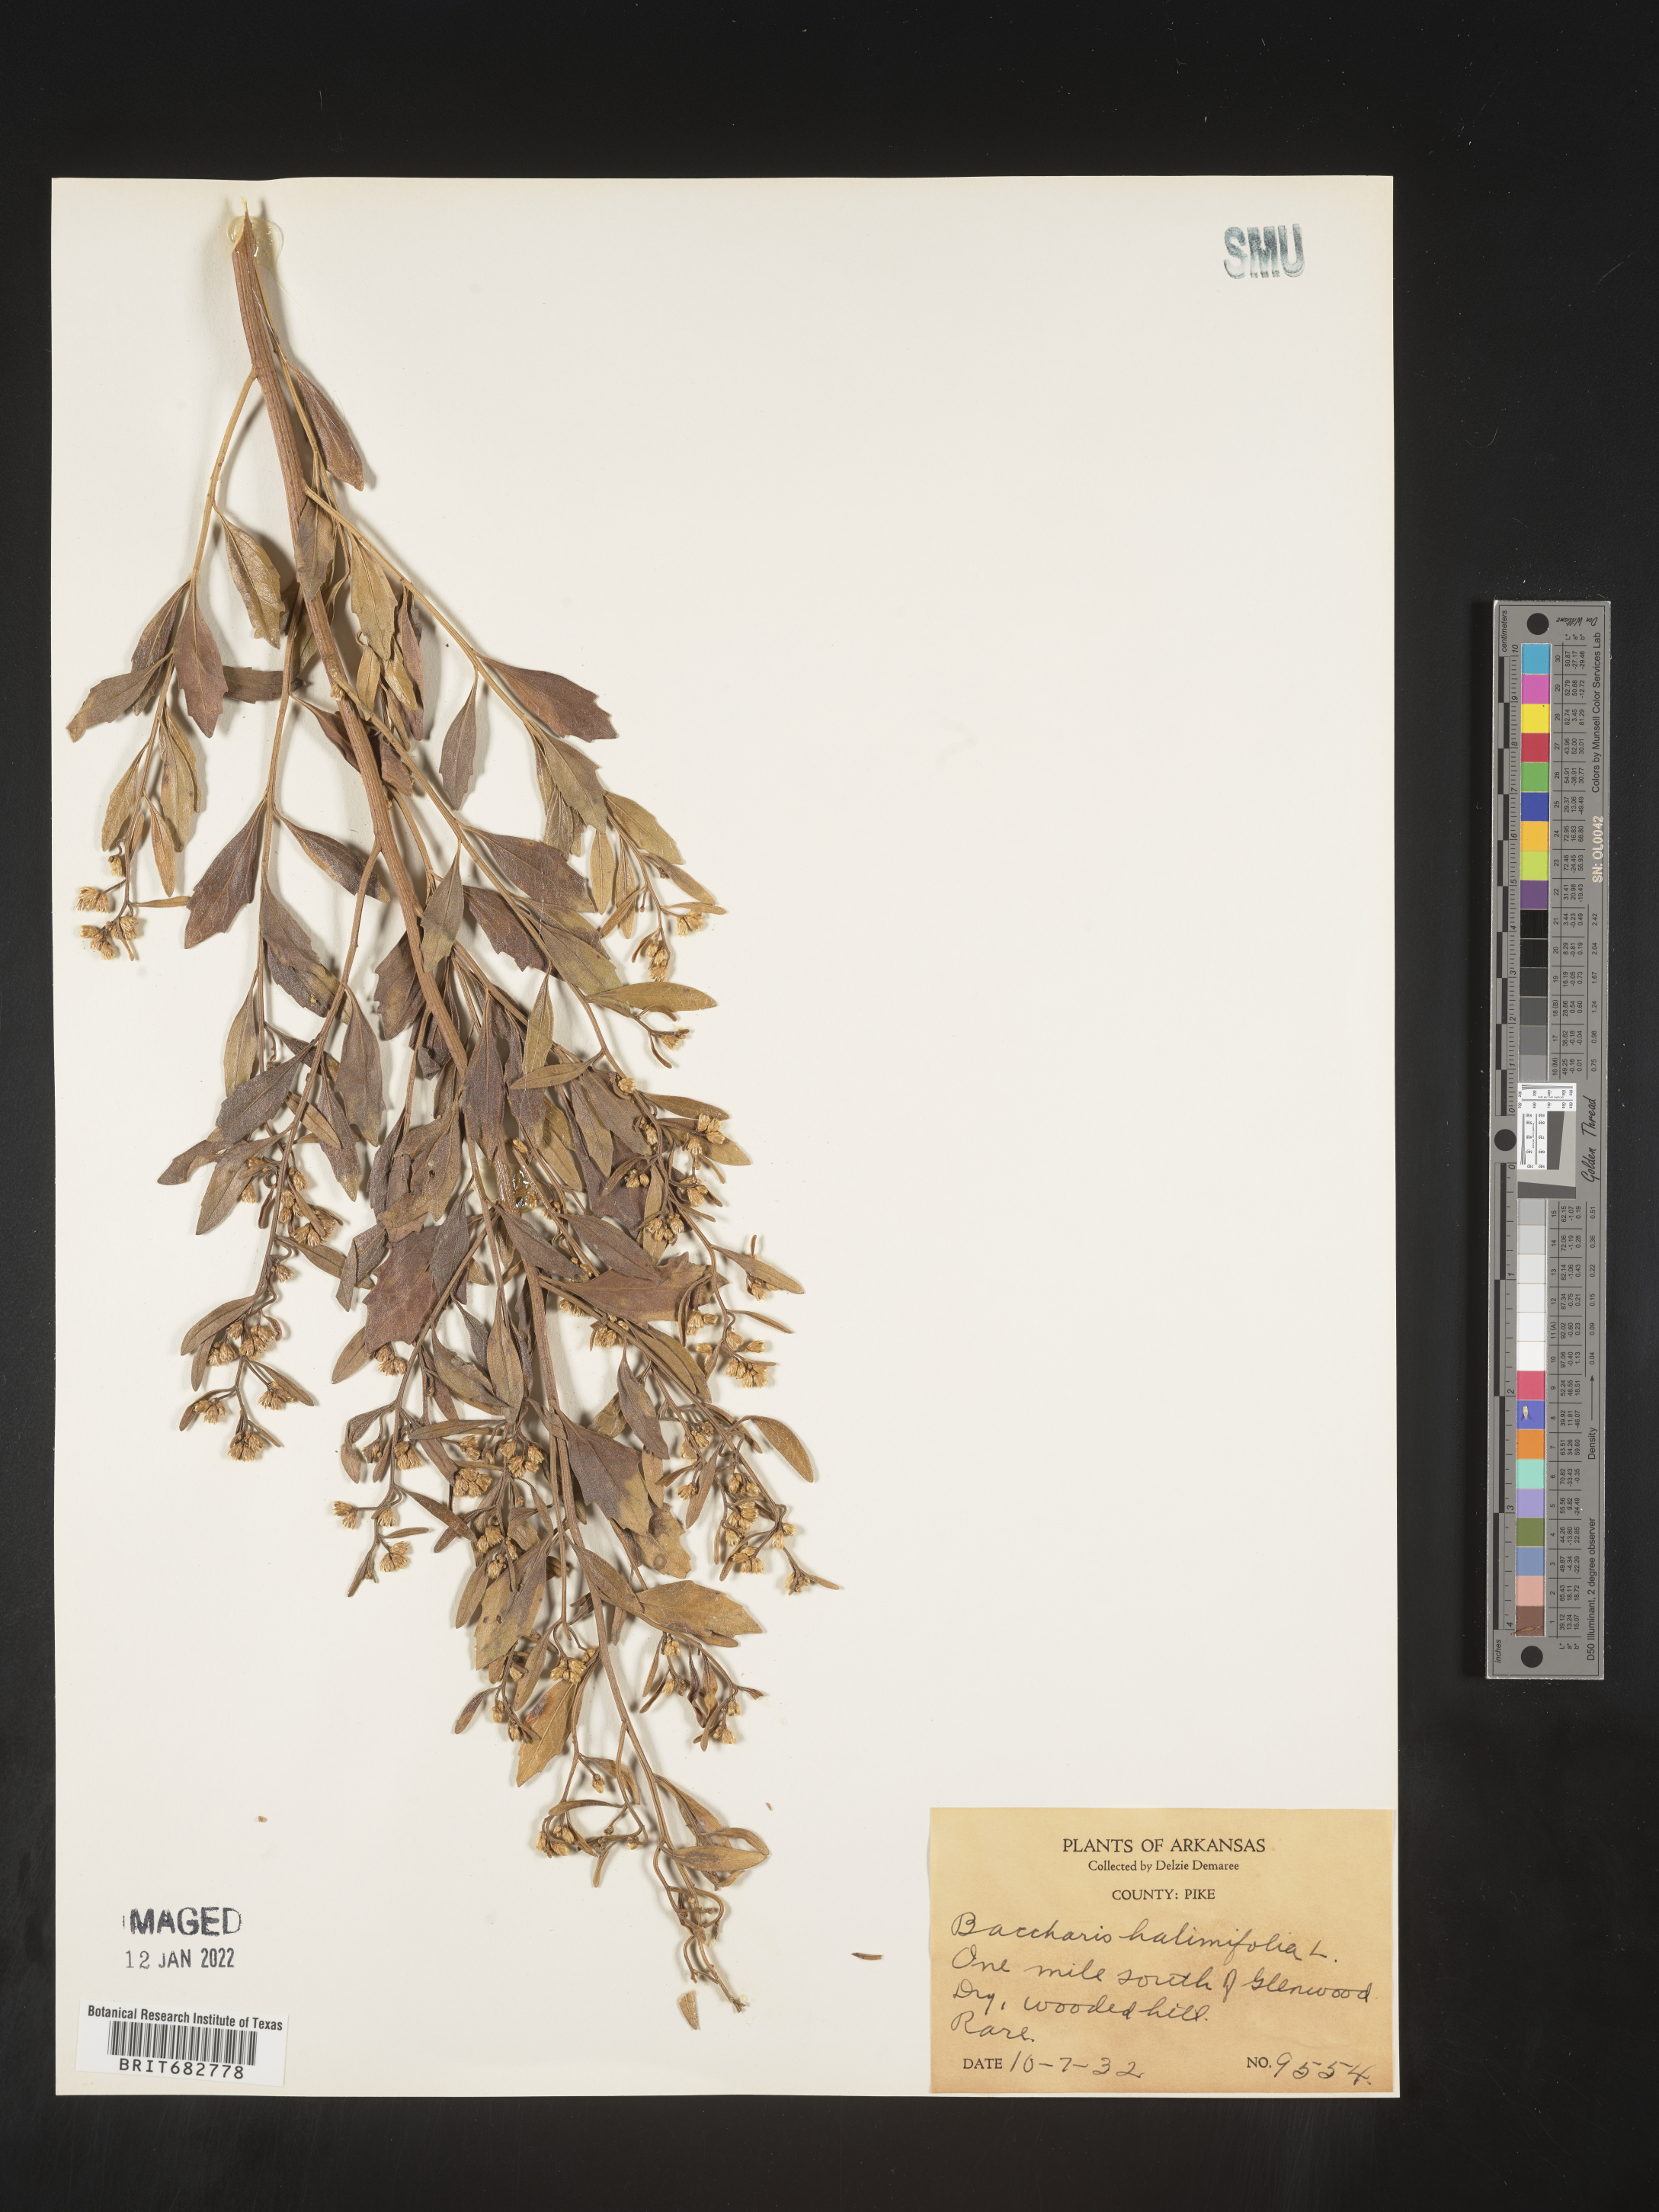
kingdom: Plantae
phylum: Tracheophyta
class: Magnoliopsida
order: Asterales
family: Asteraceae
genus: Nidorella
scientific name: Nidorella ivifolia
